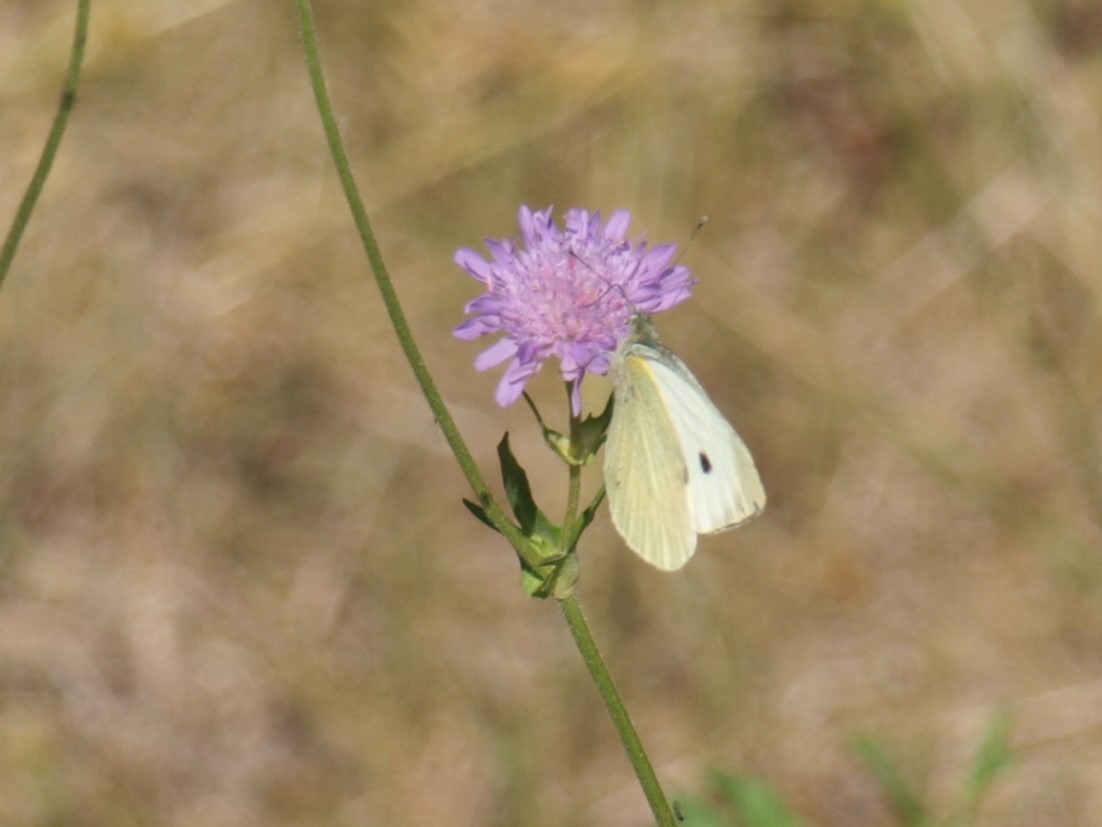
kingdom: Animalia
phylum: Arthropoda
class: Insecta
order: Lepidoptera
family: Pieridae
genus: Pieris
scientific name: Pieris brassicae
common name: Stor kålsommerfugl
